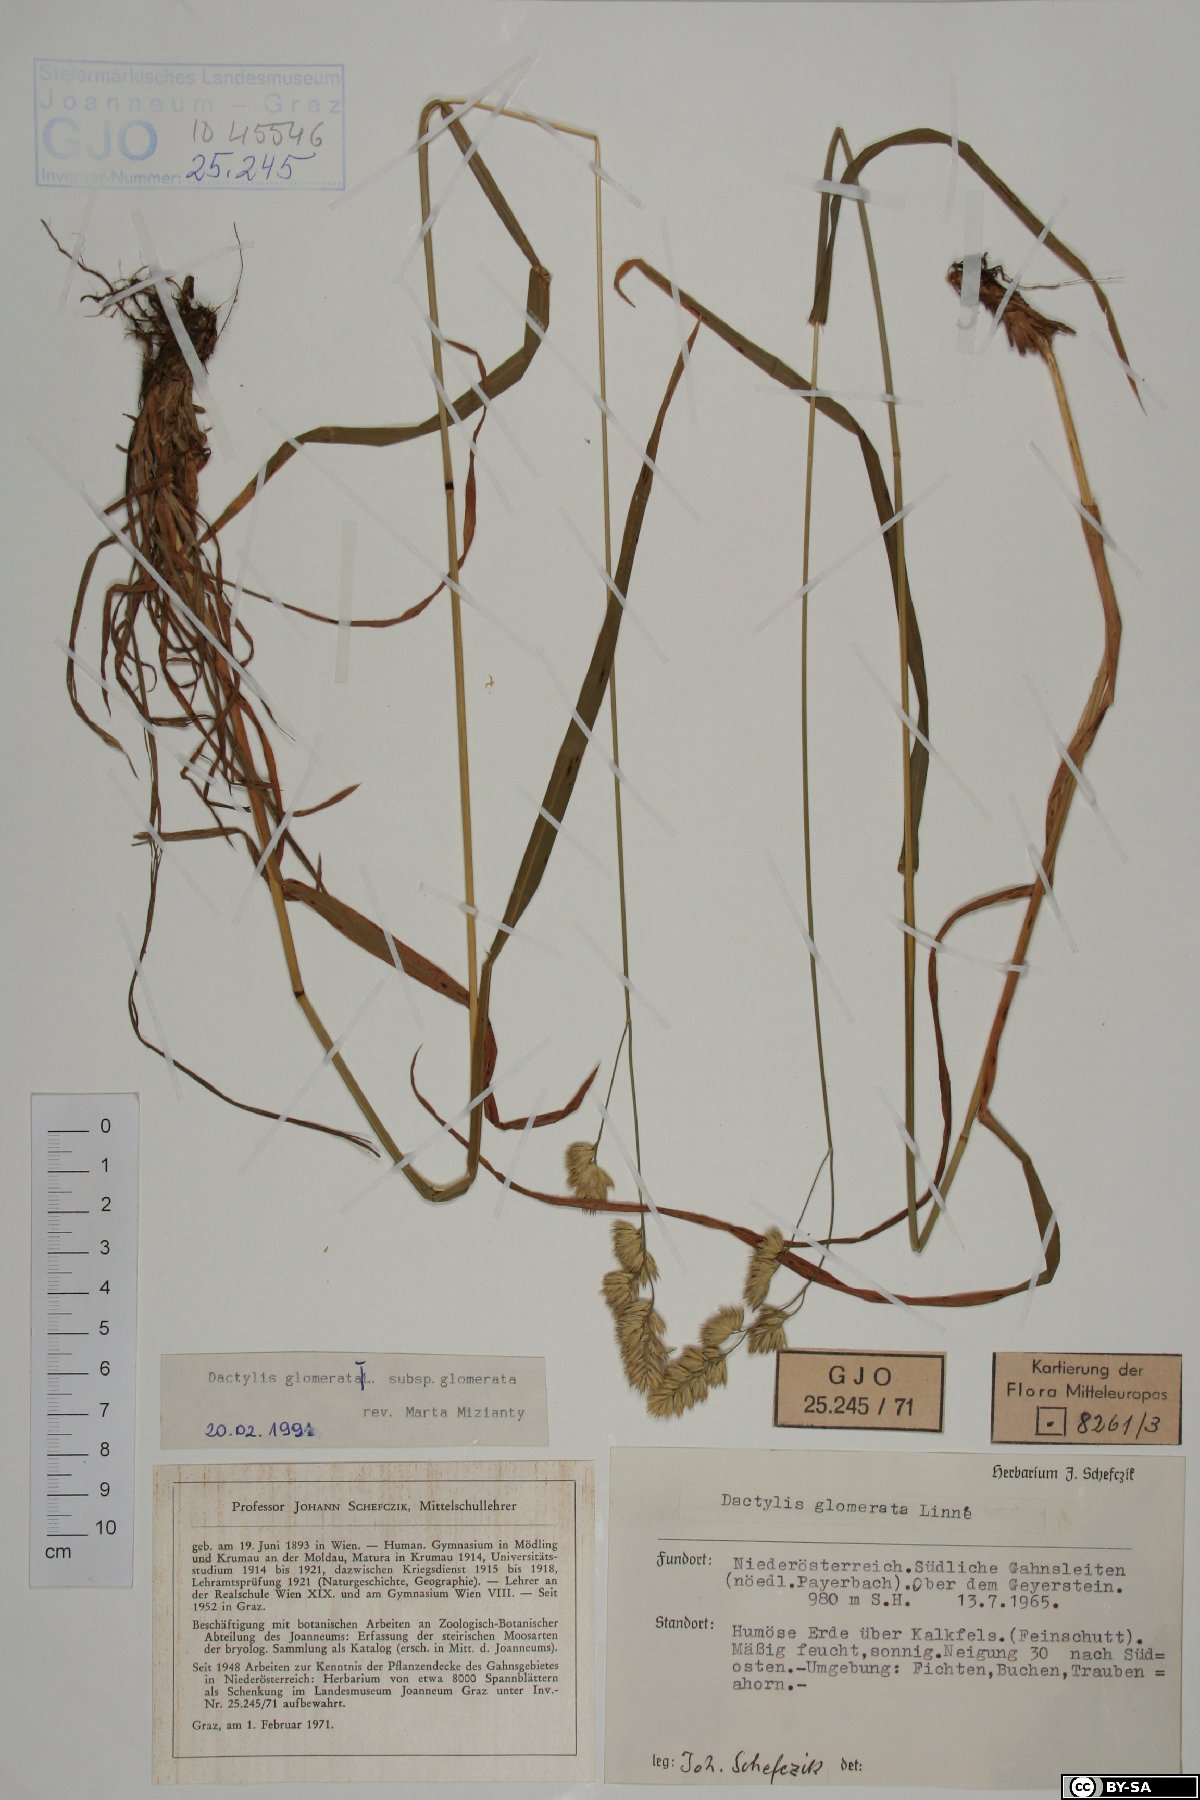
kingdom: Plantae
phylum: Tracheophyta
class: Liliopsida
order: Poales
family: Poaceae
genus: Dactylis
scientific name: Dactylis glomerata
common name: Orchardgrass
